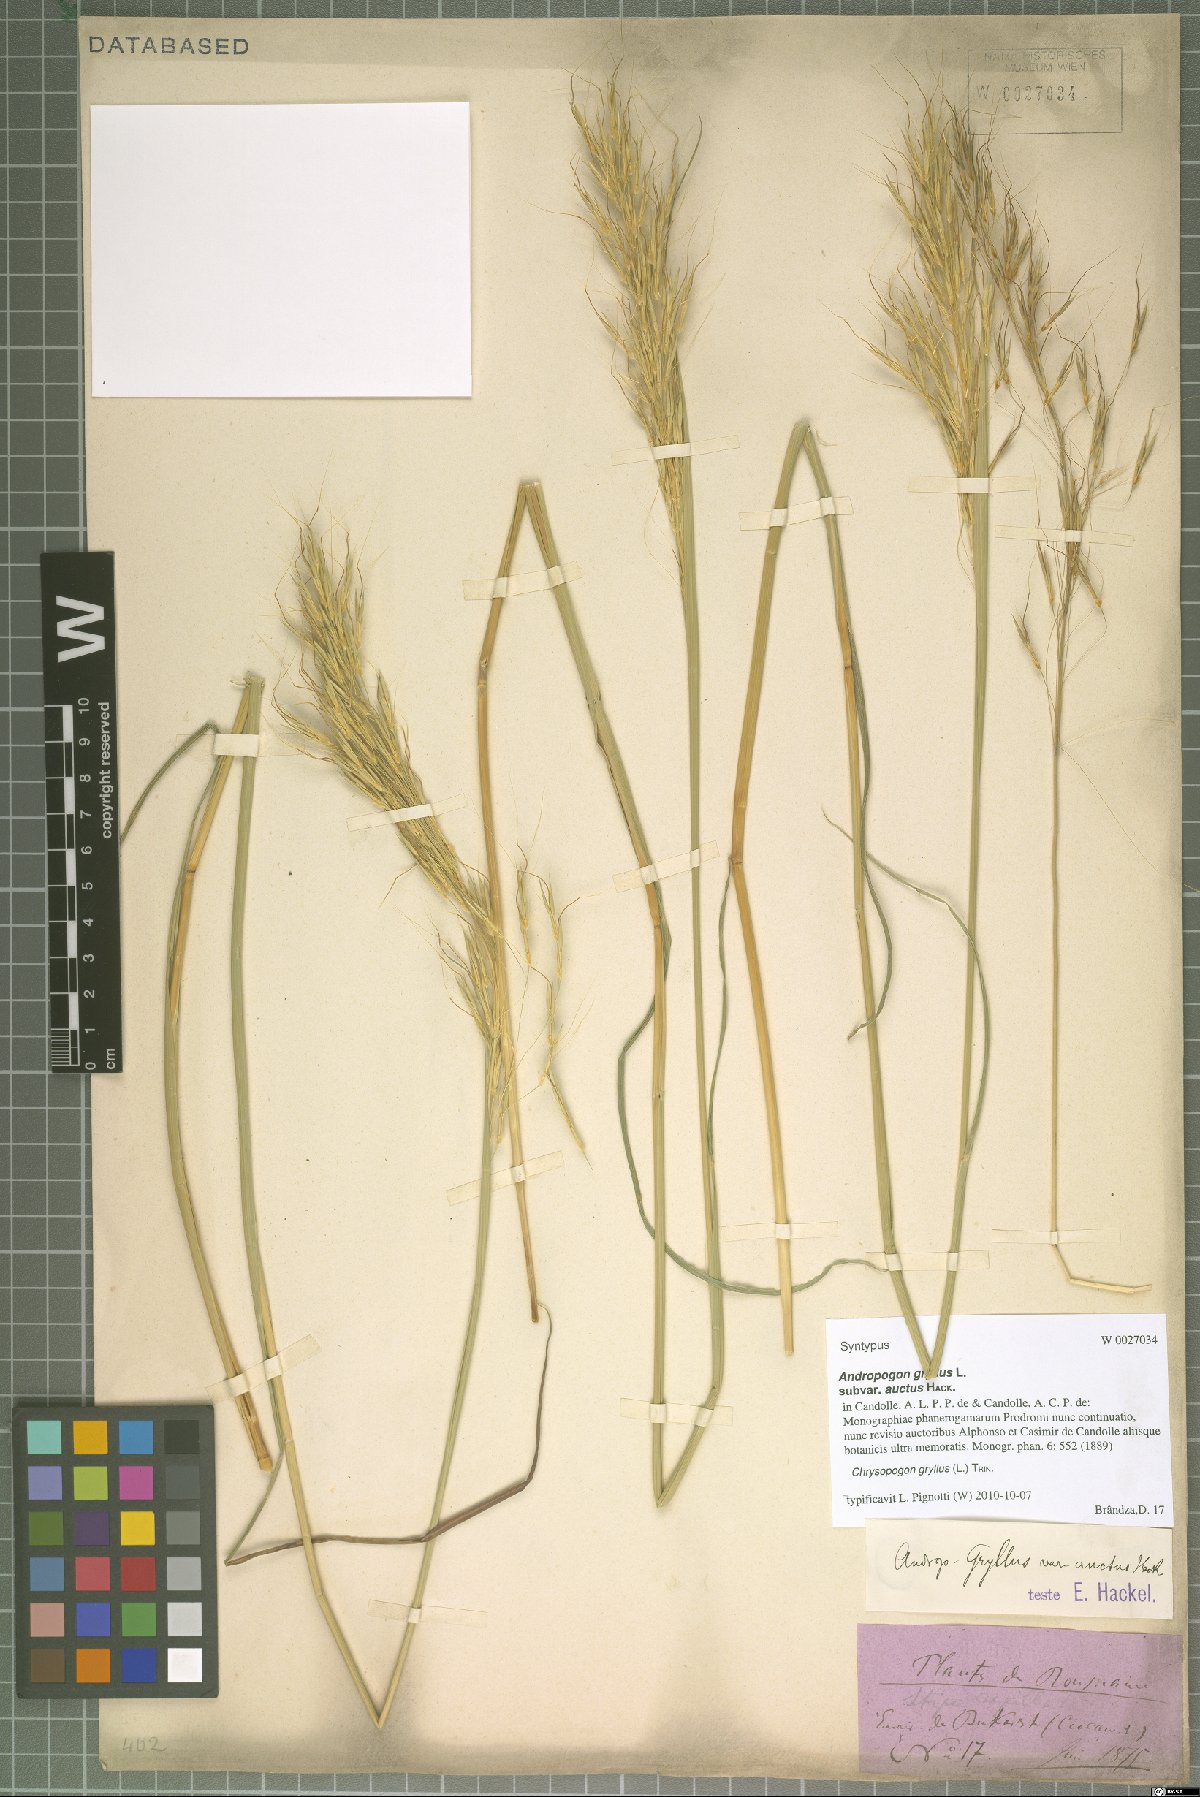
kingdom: Plantae
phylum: Tracheophyta
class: Liliopsida
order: Poales
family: Poaceae
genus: Chrysopogon
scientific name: Chrysopogon gryllus
